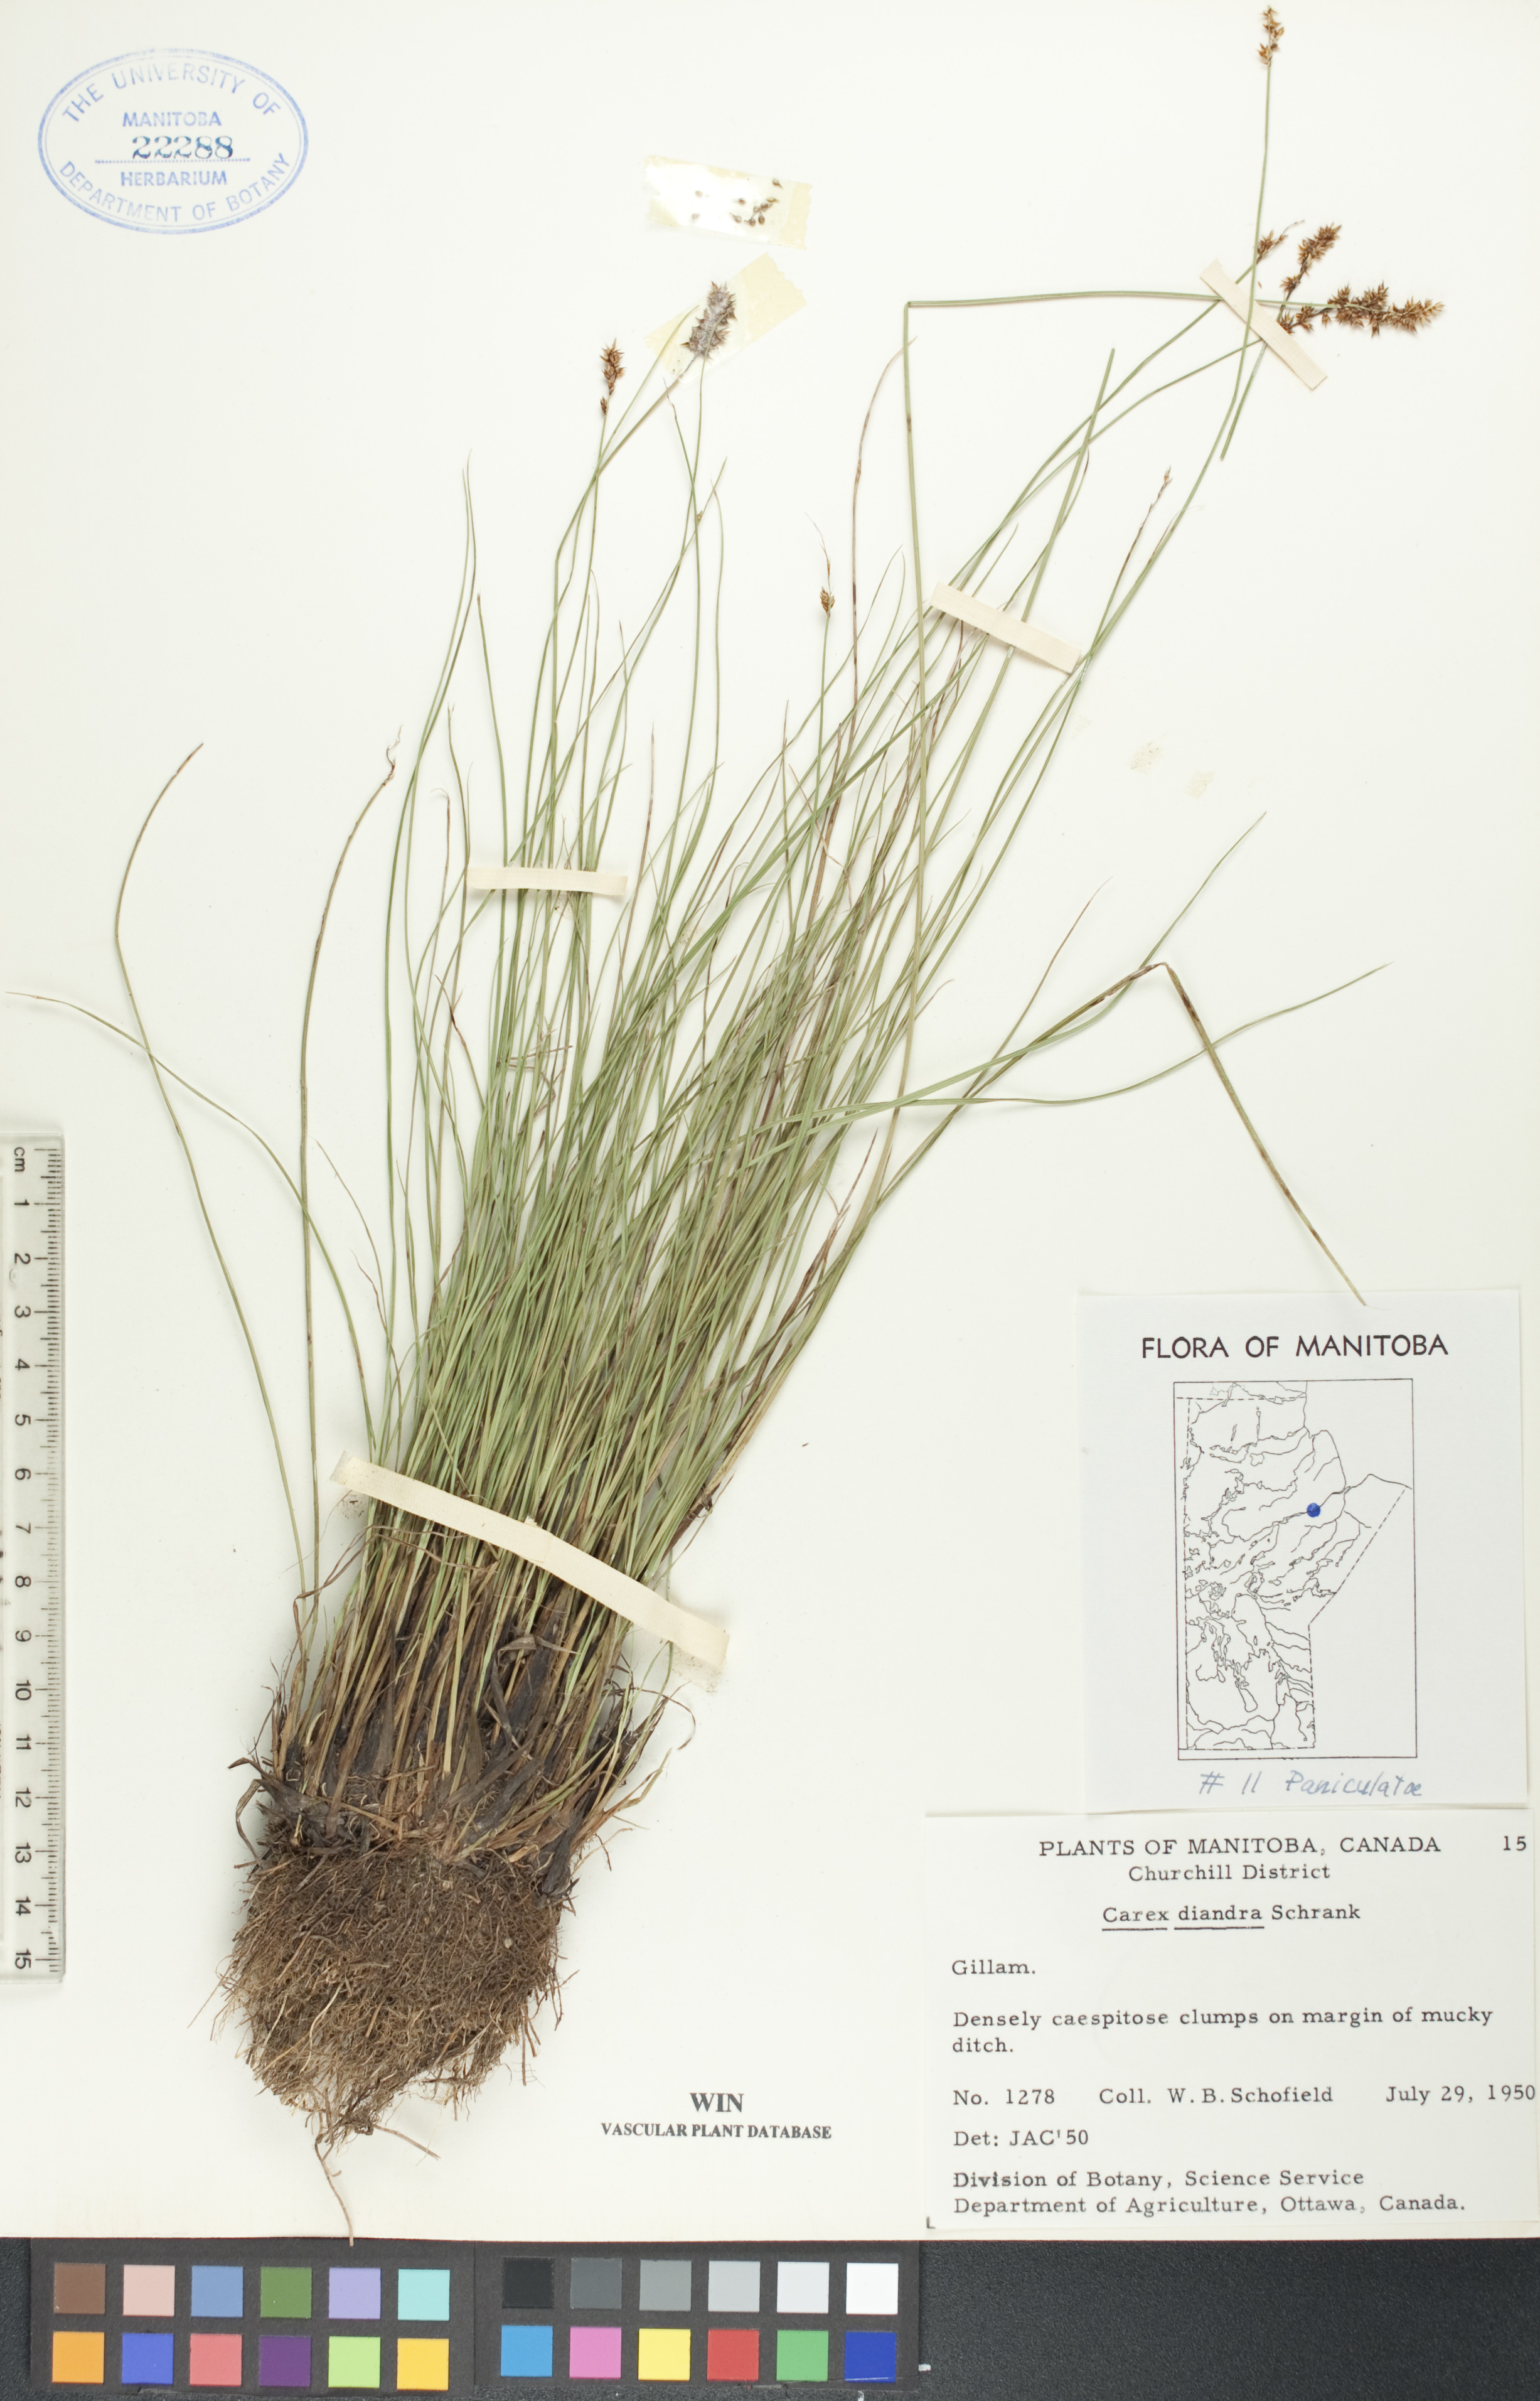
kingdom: Plantae
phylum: Tracheophyta
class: Liliopsida
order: Poales
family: Cyperaceae
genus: Carex
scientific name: Carex diandra
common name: Lesser tussock-sedge
